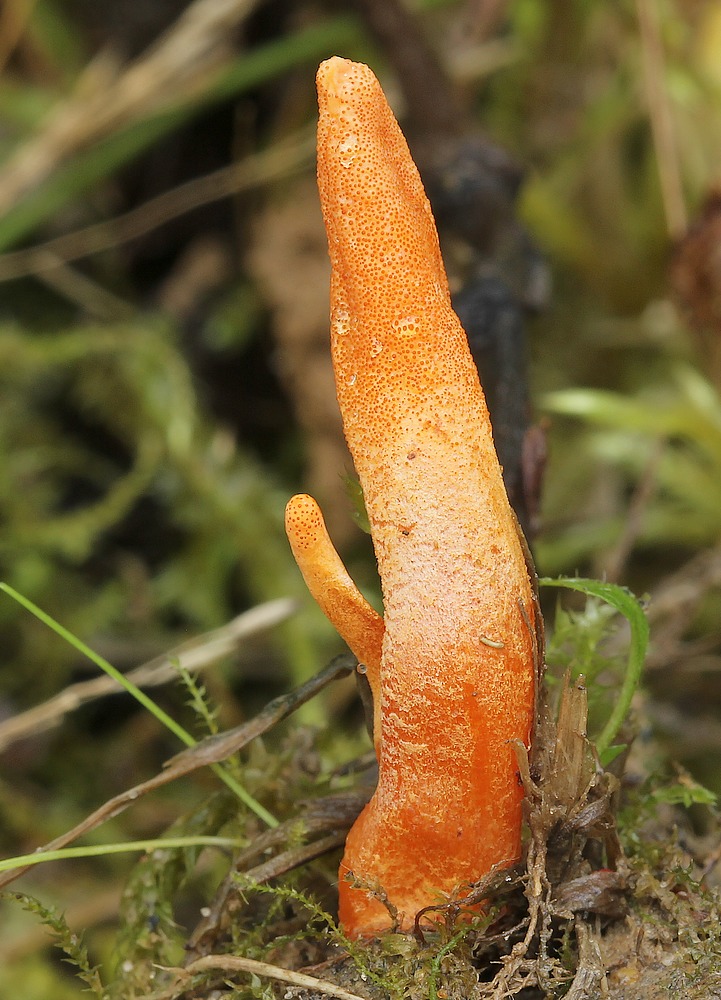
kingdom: Fungi
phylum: Ascomycota
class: Sordariomycetes
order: Hypocreales
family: Cordycipitaceae
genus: Cordyceps
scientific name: Cordyceps militaris
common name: puppe-snyltekølle
